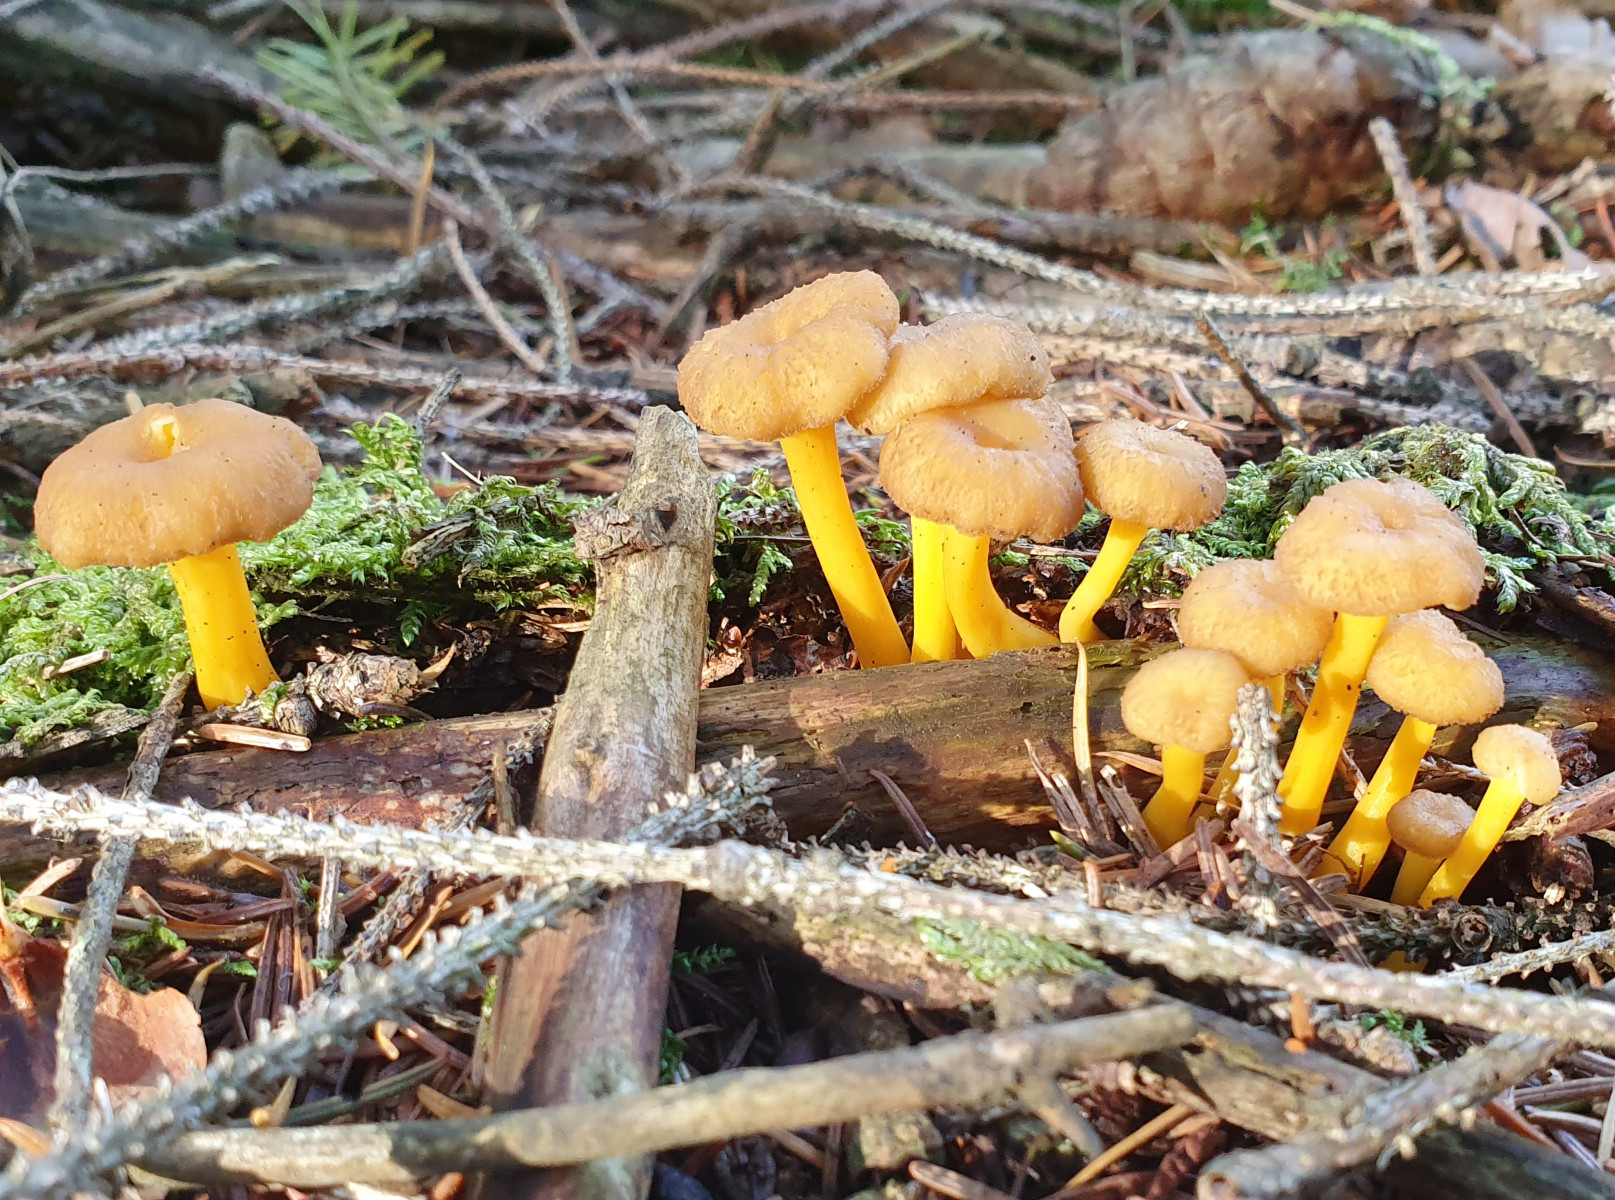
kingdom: Fungi
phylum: Basidiomycota
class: Agaricomycetes
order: Cantharellales
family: Hydnaceae
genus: Craterellus
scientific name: Craterellus tubaeformis
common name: tragt-kantarel
